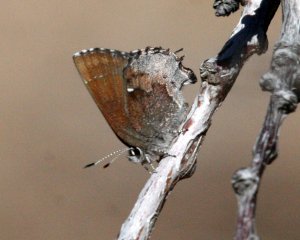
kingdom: Animalia
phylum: Arthropoda
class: Insecta
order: Lepidoptera
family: Lycaenidae
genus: Incisalia
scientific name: Incisalia henrici
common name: Henry's Elfin
